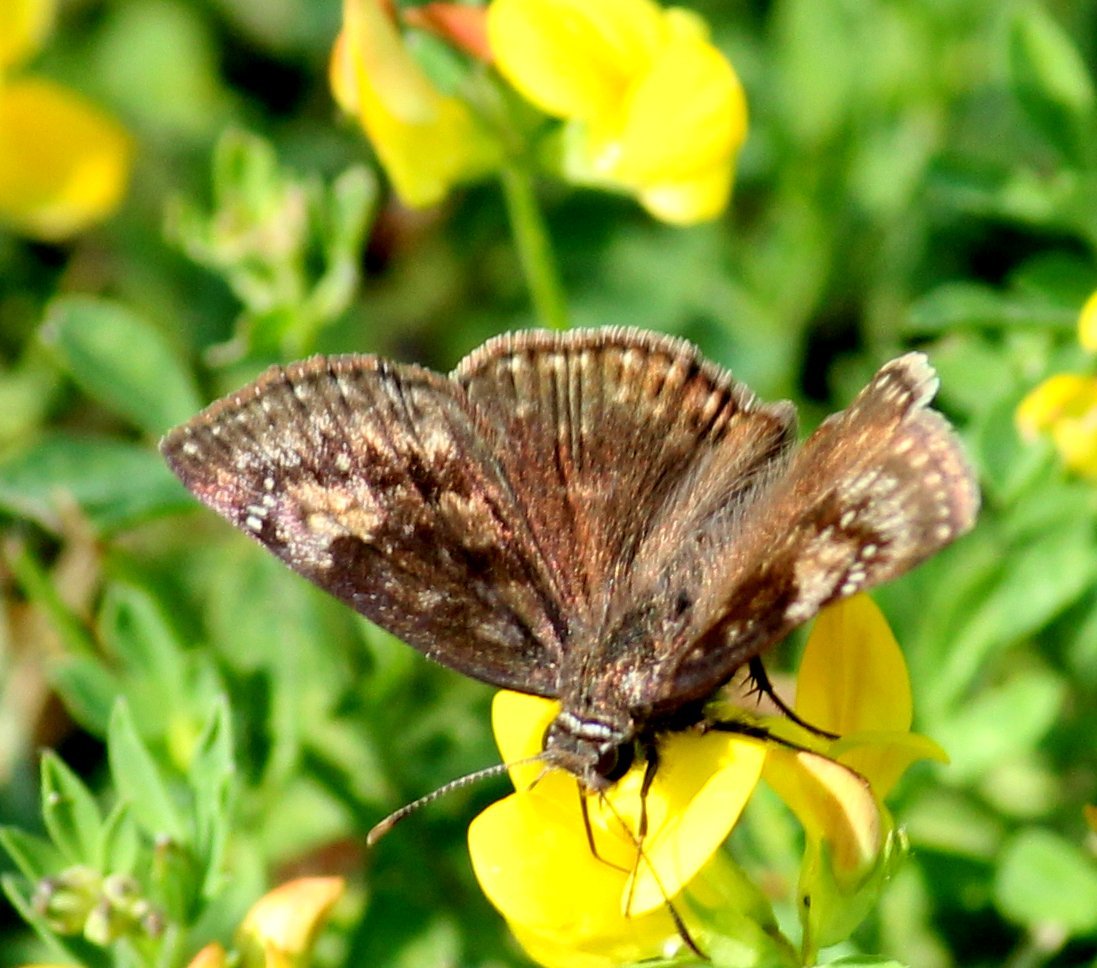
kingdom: Animalia
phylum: Arthropoda
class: Insecta
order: Lepidoptera
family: Hesperiidae
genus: Gesta
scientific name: Gesta
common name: Wild Indigo Duskywing
